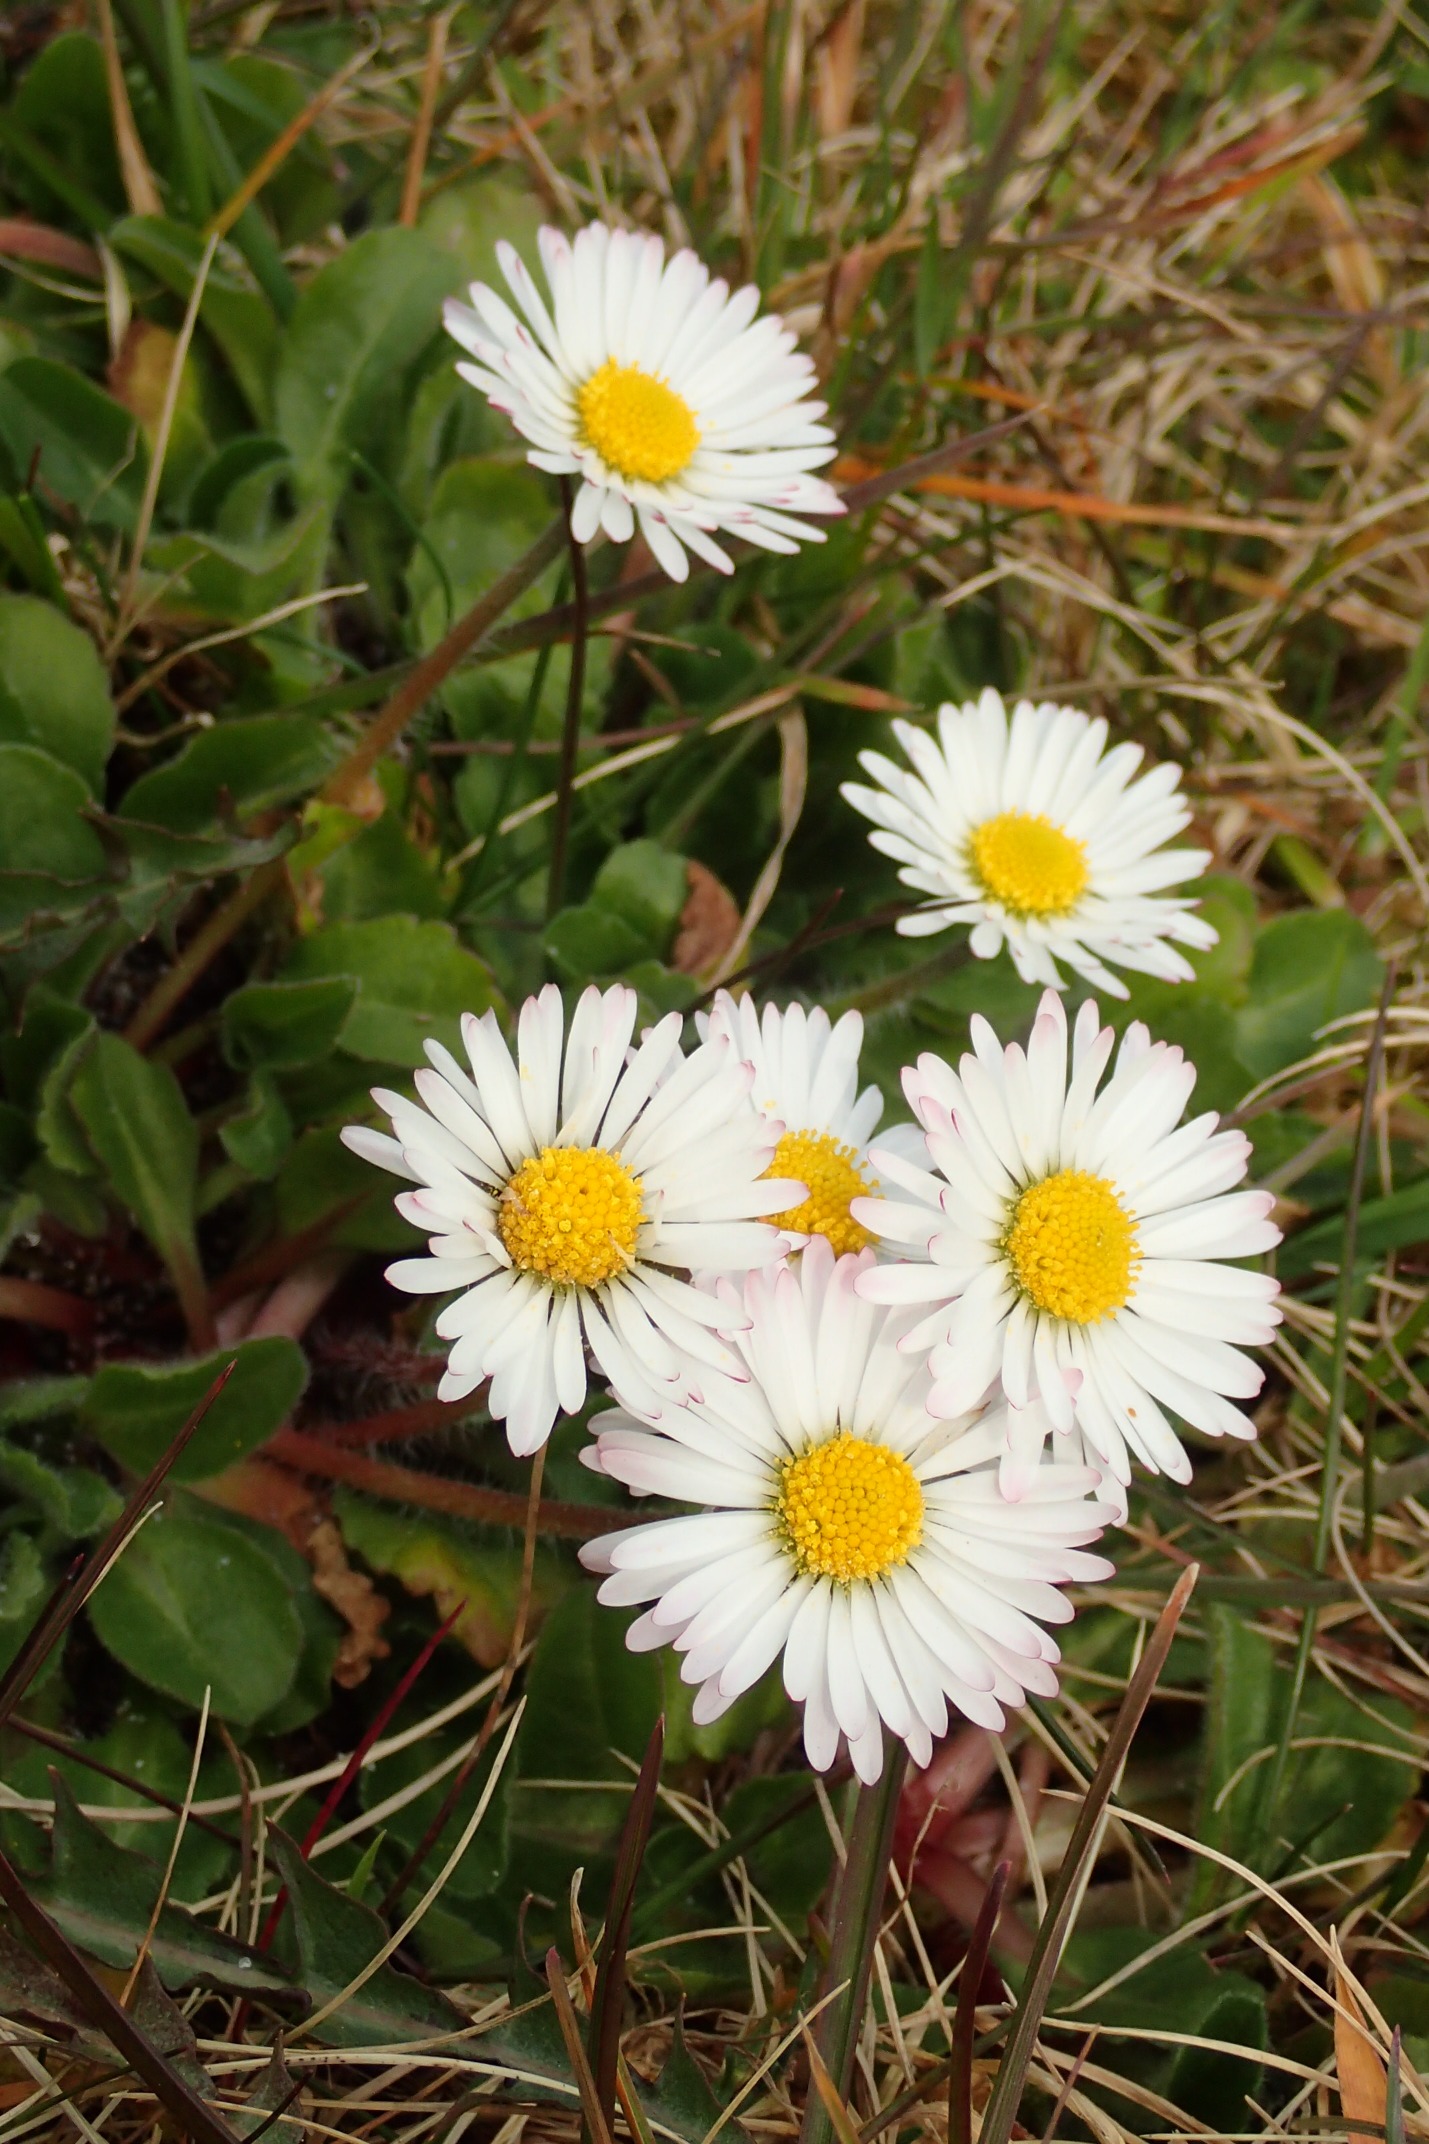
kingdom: Plantae
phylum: Tracheophyta
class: Magnoliopsida
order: Asterales
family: Asteraceae
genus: Bellis
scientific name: Bellis perennis
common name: Tusindfryd
